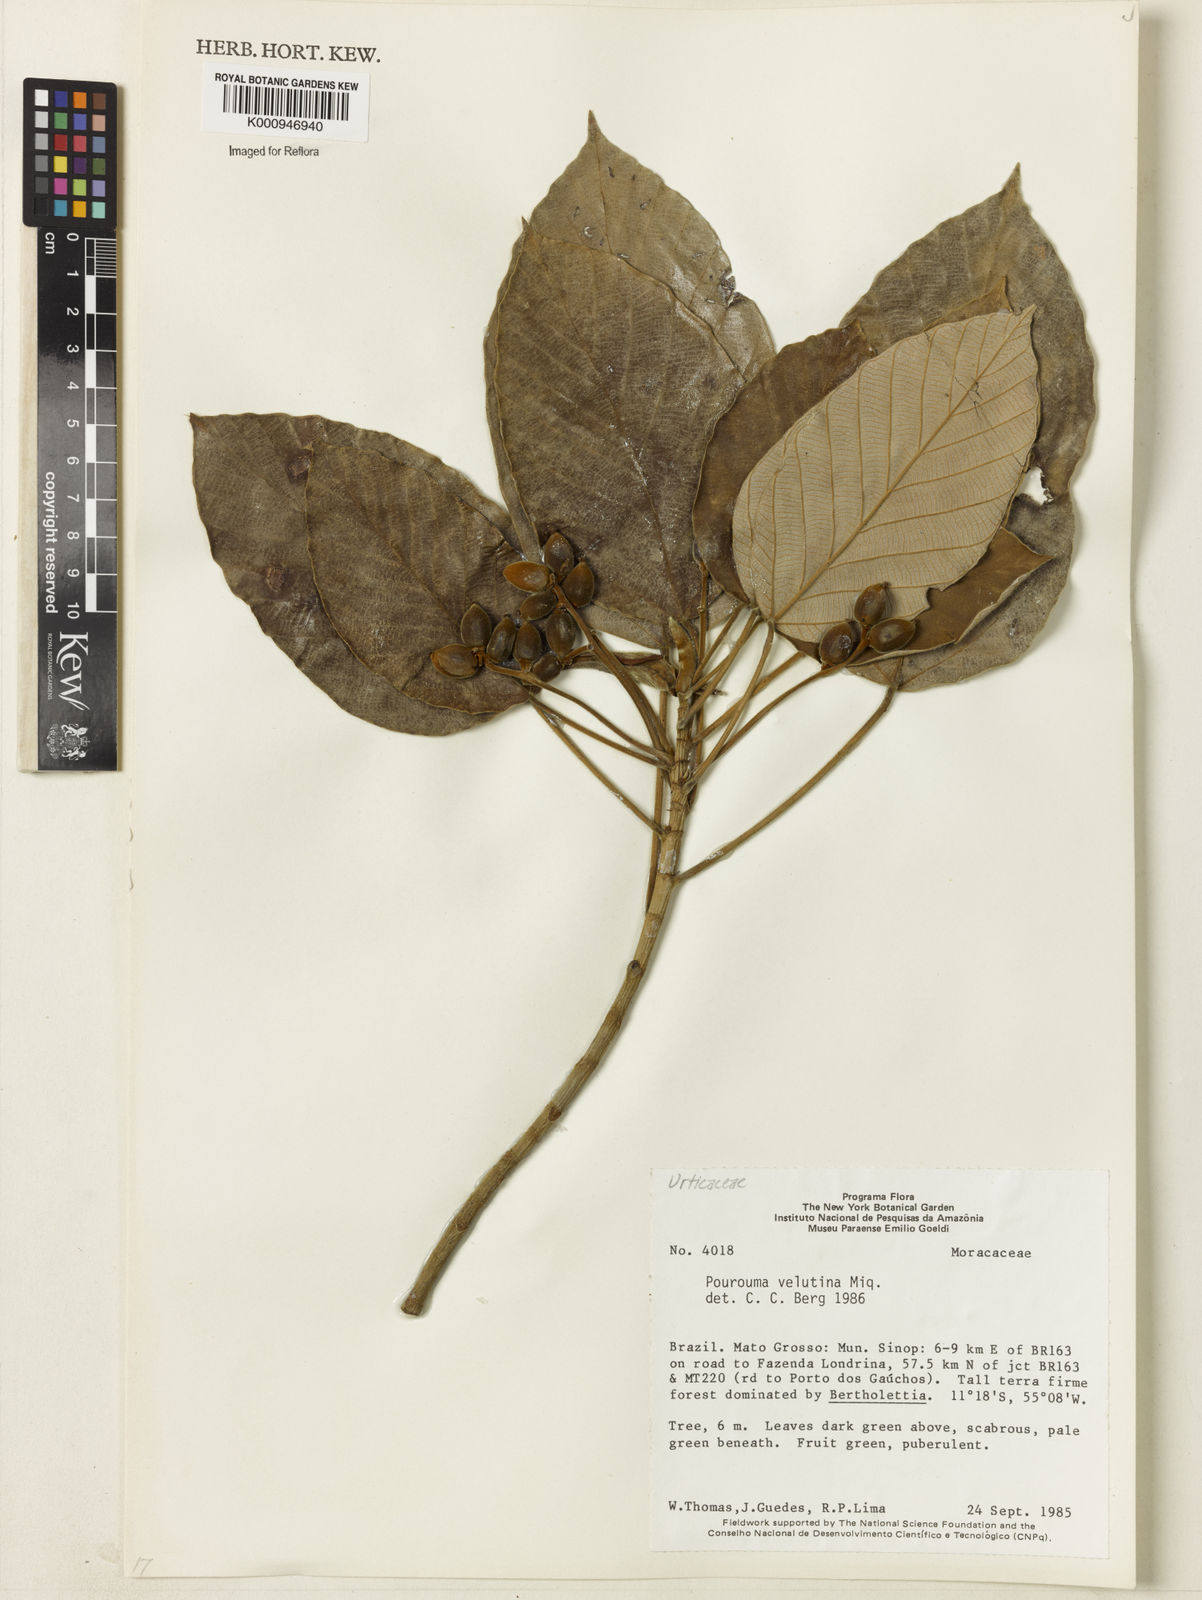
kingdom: Plantae
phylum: Tracheophyta
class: Magnoliopsida
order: Rosales
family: Urticaceae
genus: Pourouma
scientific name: Pourouma velutina
